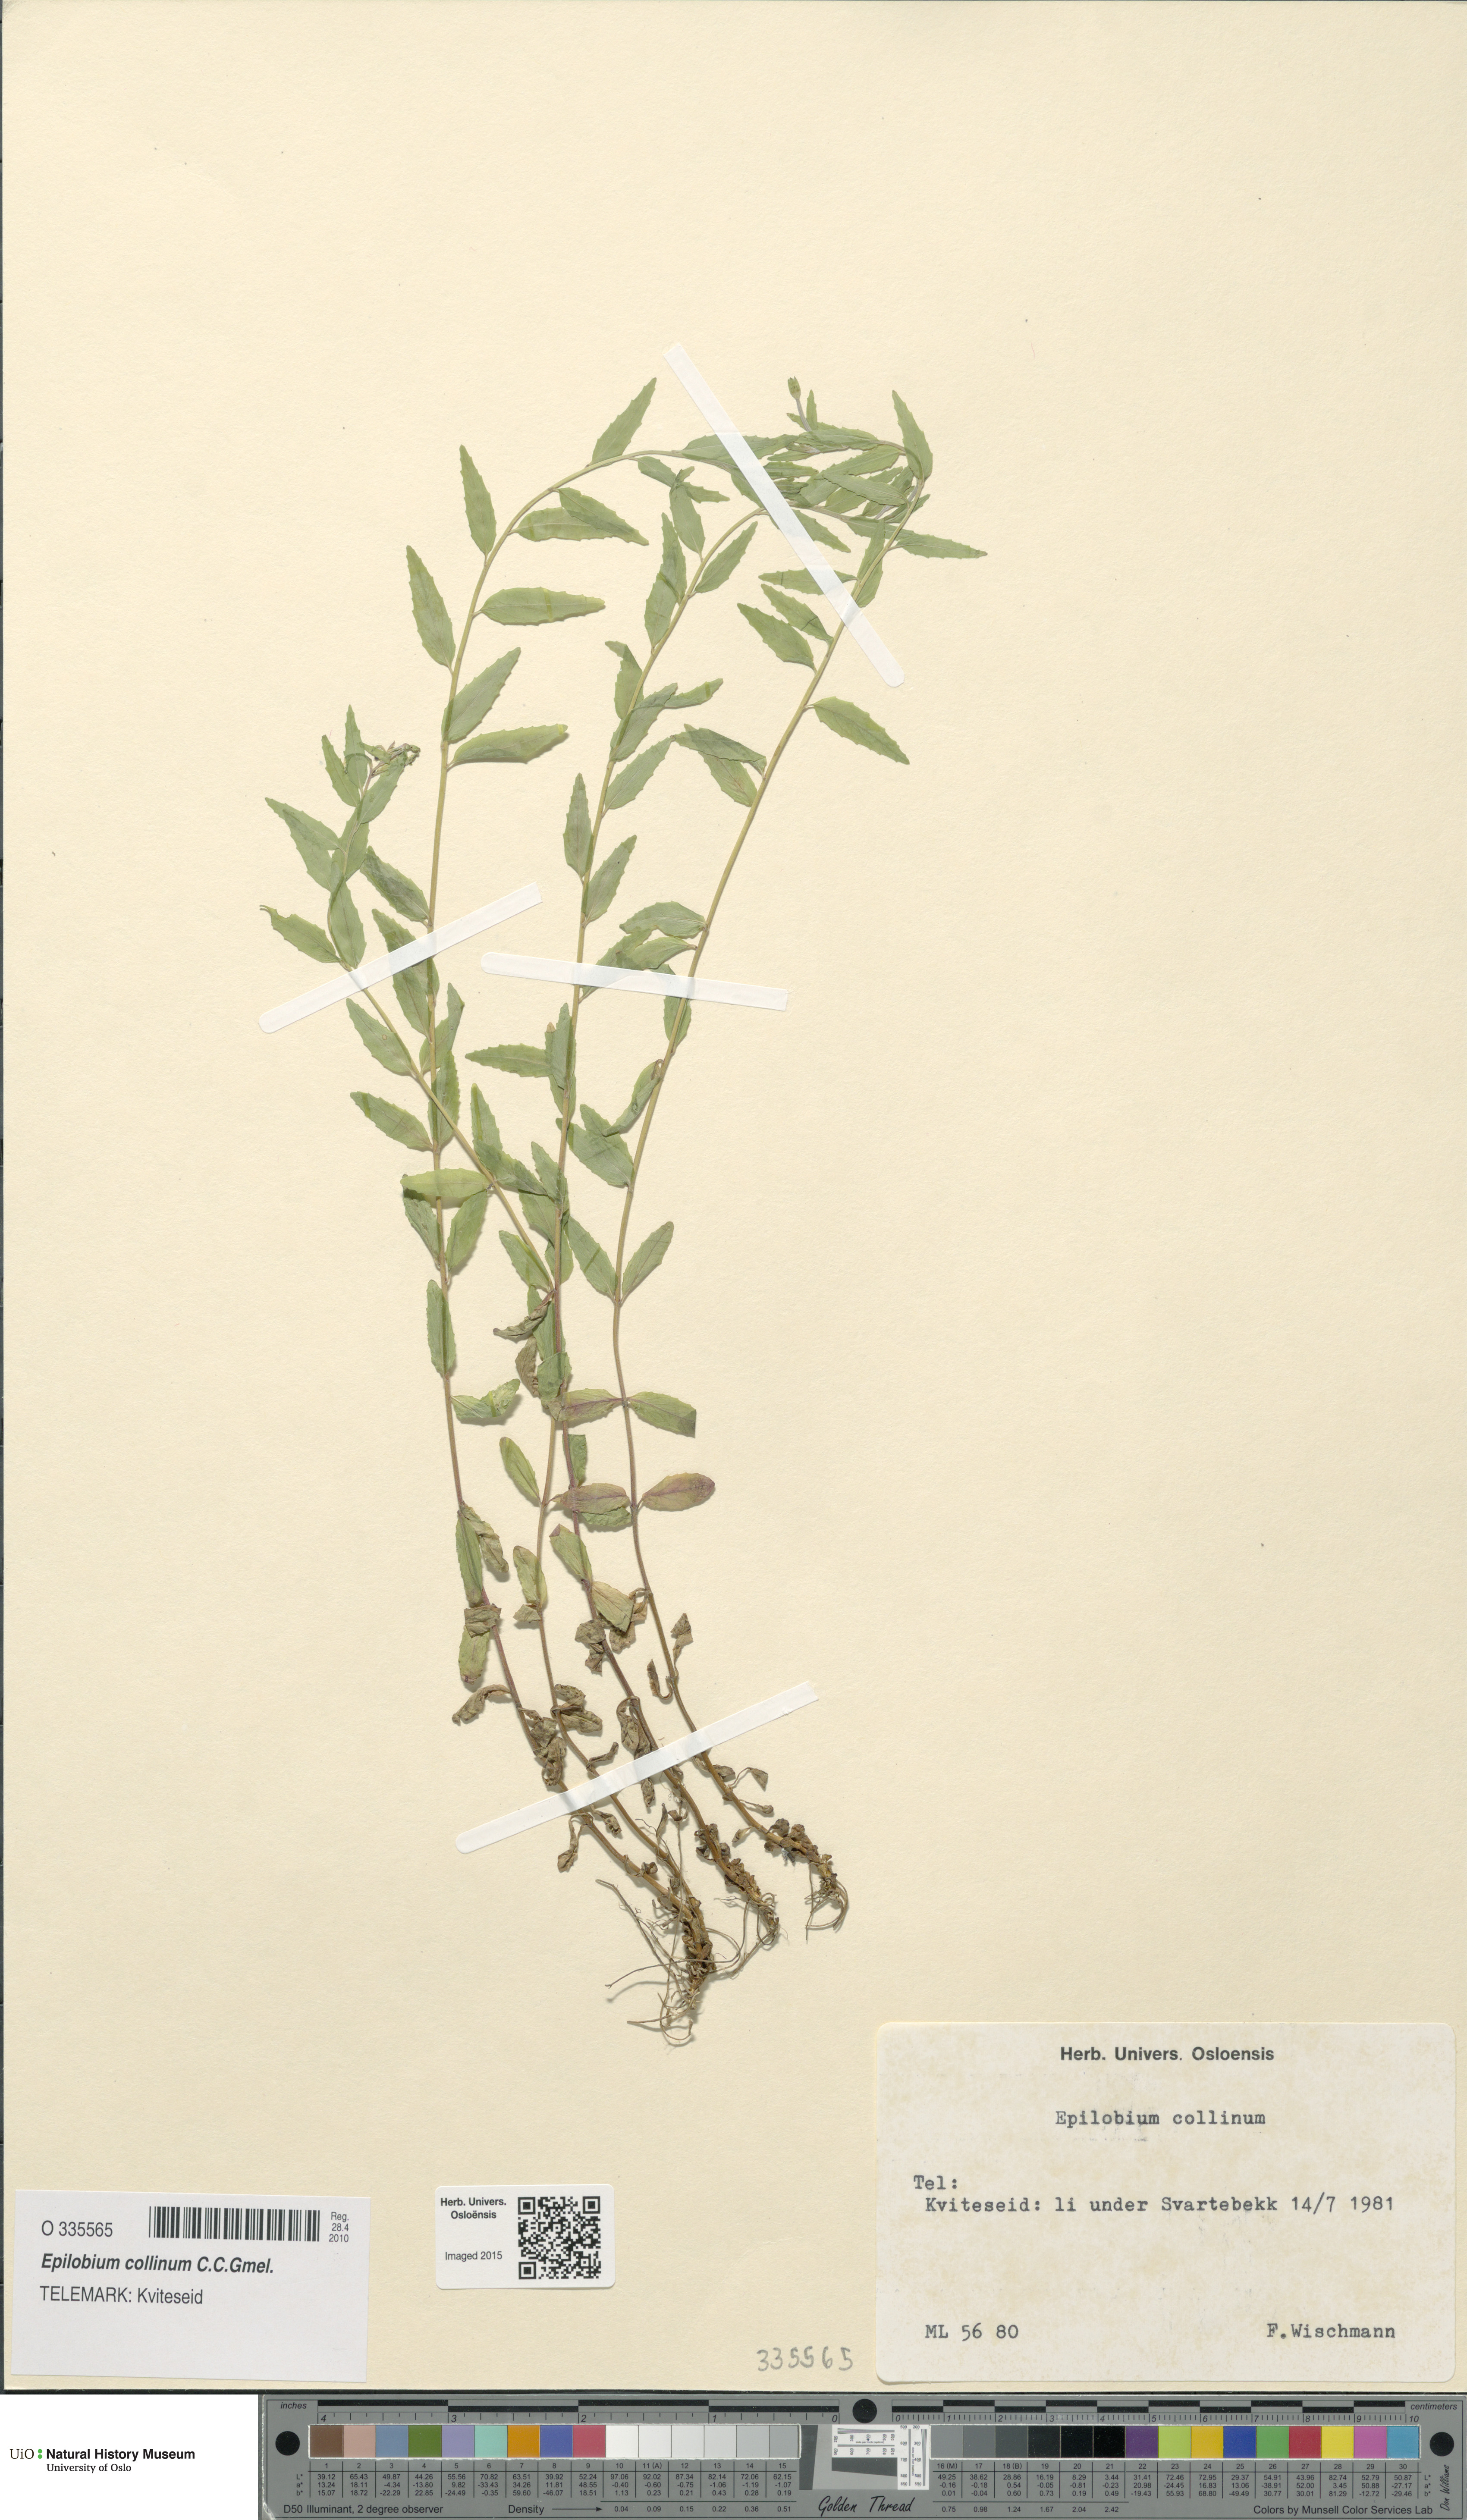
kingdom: Plantae
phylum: Tracheophyta
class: Magnoliopsida
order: Myrtales
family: Onagraceae
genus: Epilobium
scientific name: Epilobium collinum
